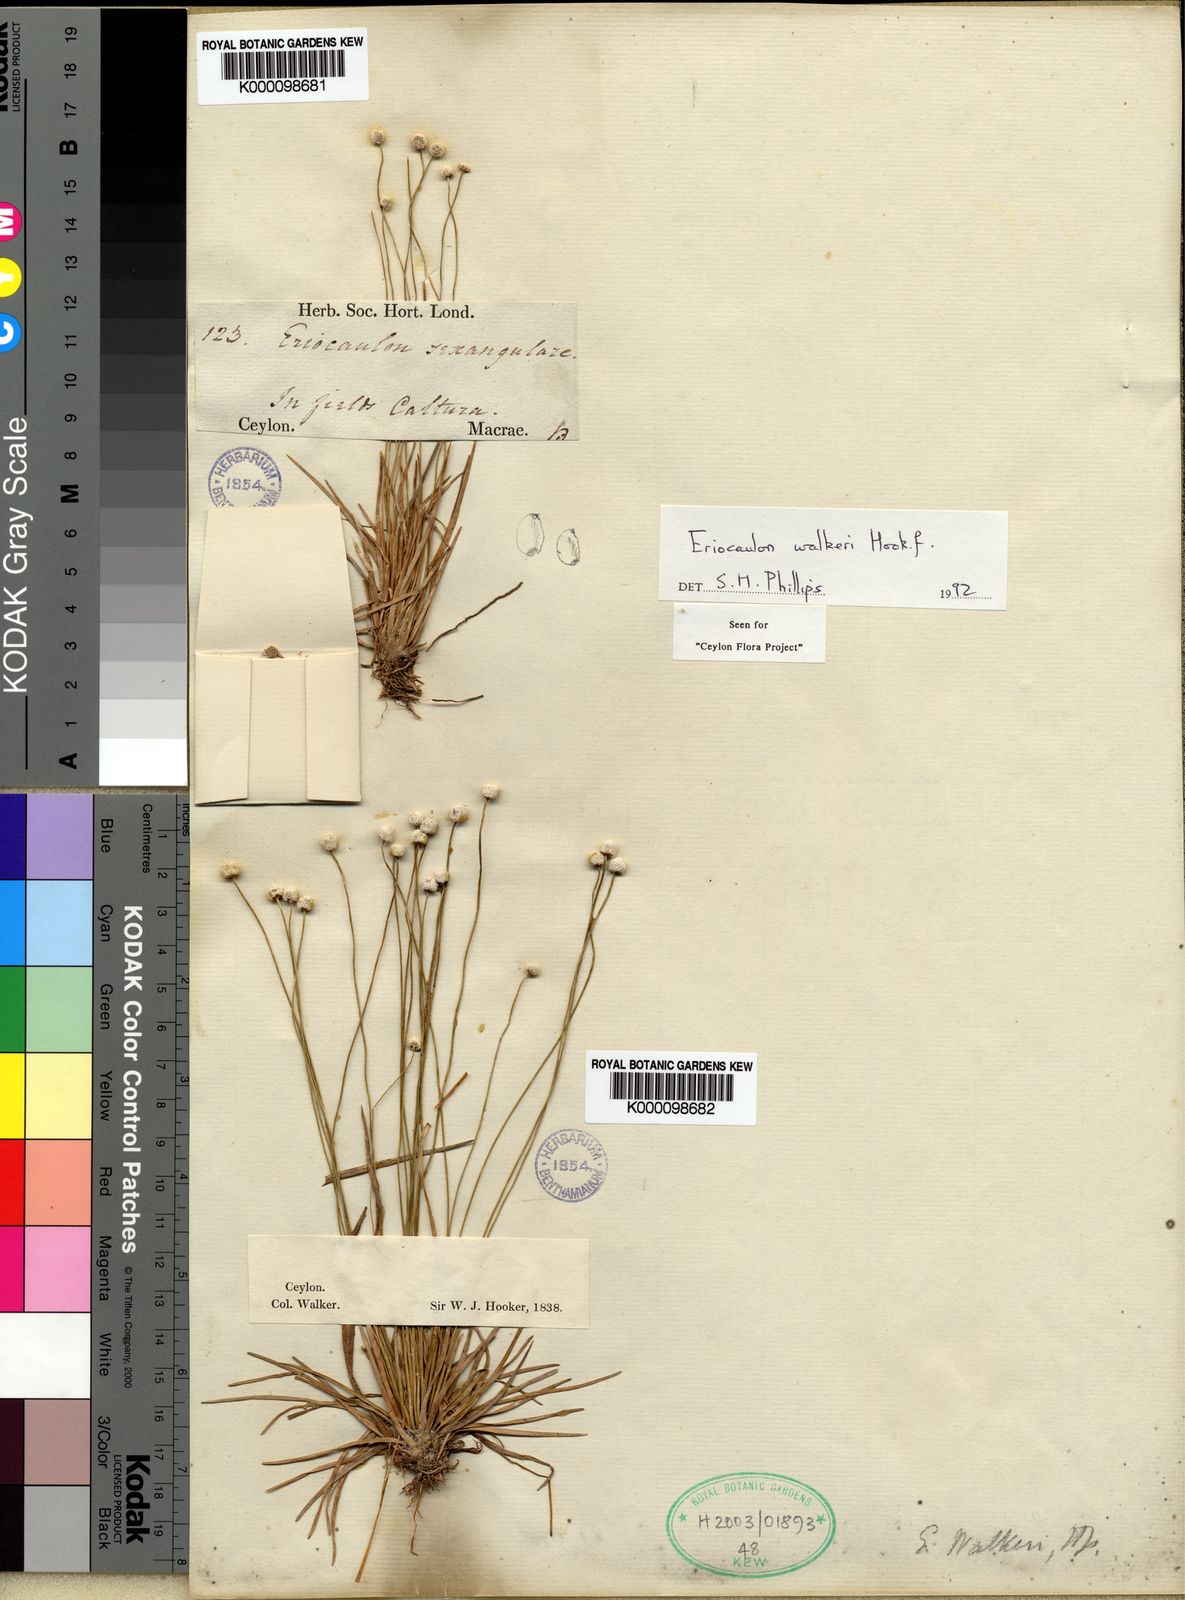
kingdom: Plantae
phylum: Tracheophyta
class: Liliopsida
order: Poales
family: Eriocaulaceae
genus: Eriocaulon
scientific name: Eriocaulon walkeri
